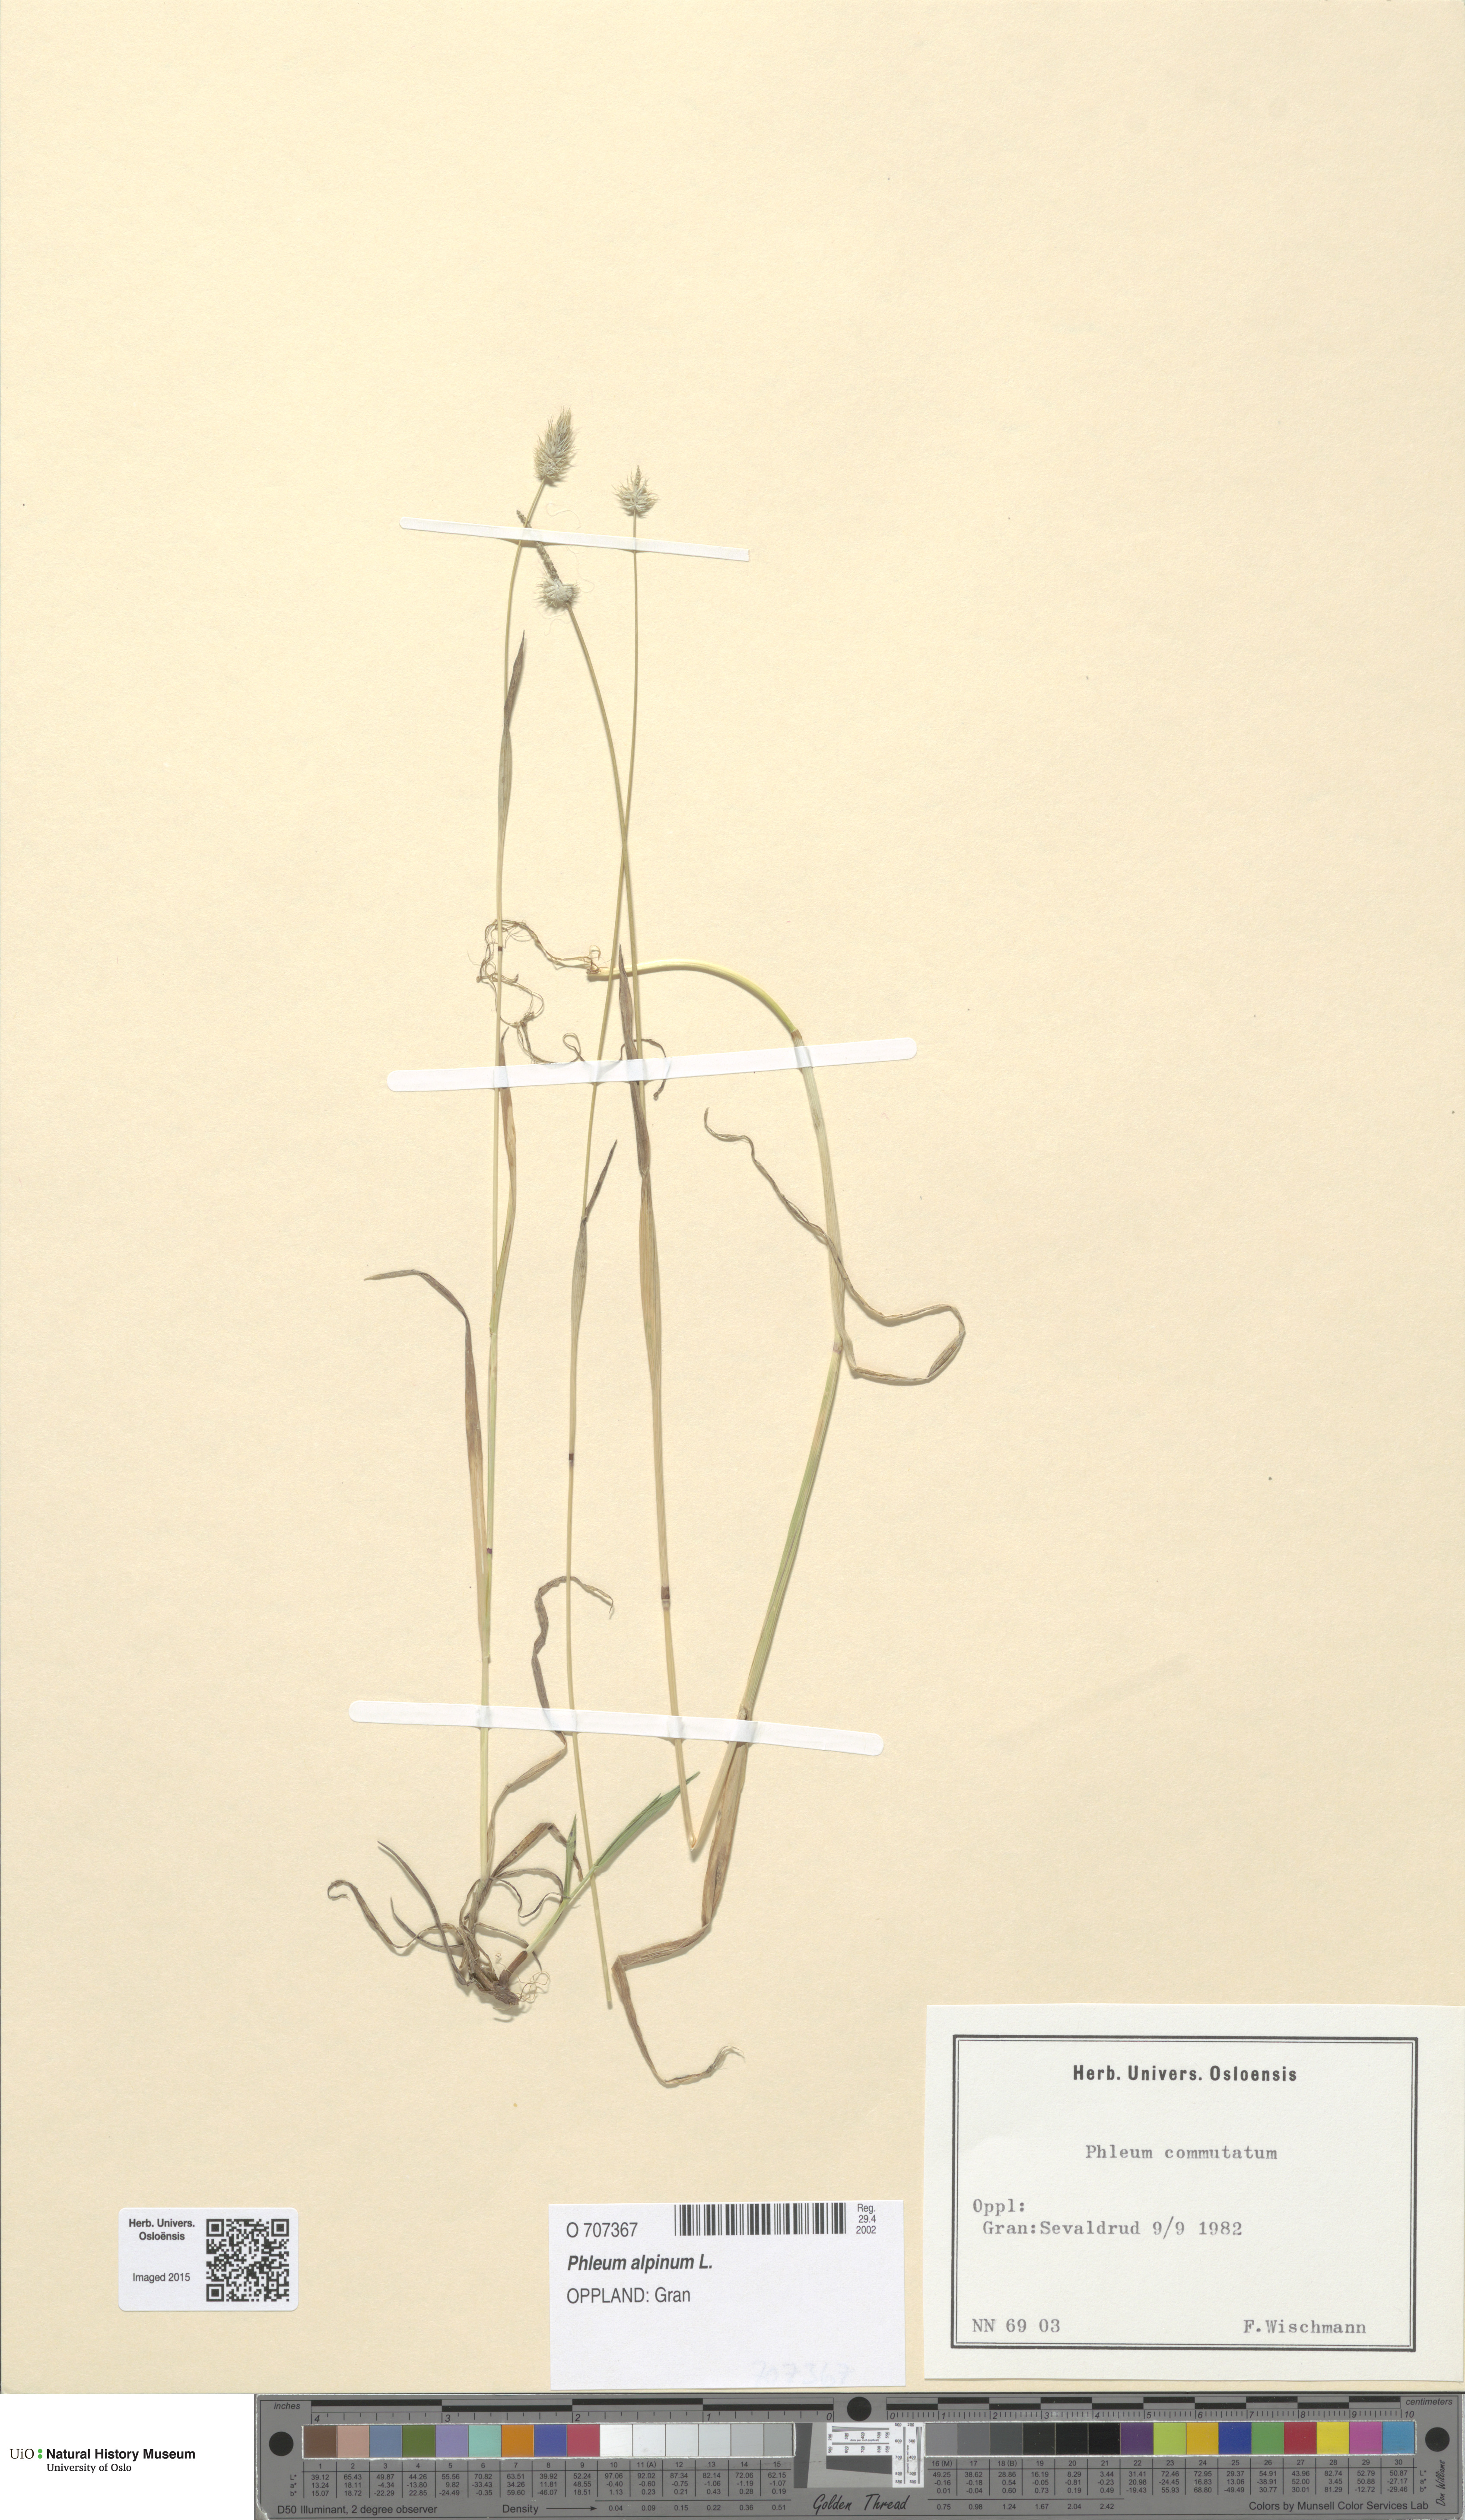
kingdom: Plantae
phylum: Tracheophyta
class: Liliopsida
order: Poales
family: Poaceae
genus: Phleum
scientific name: Phleum alpinum
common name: Alpine cat's-tail
